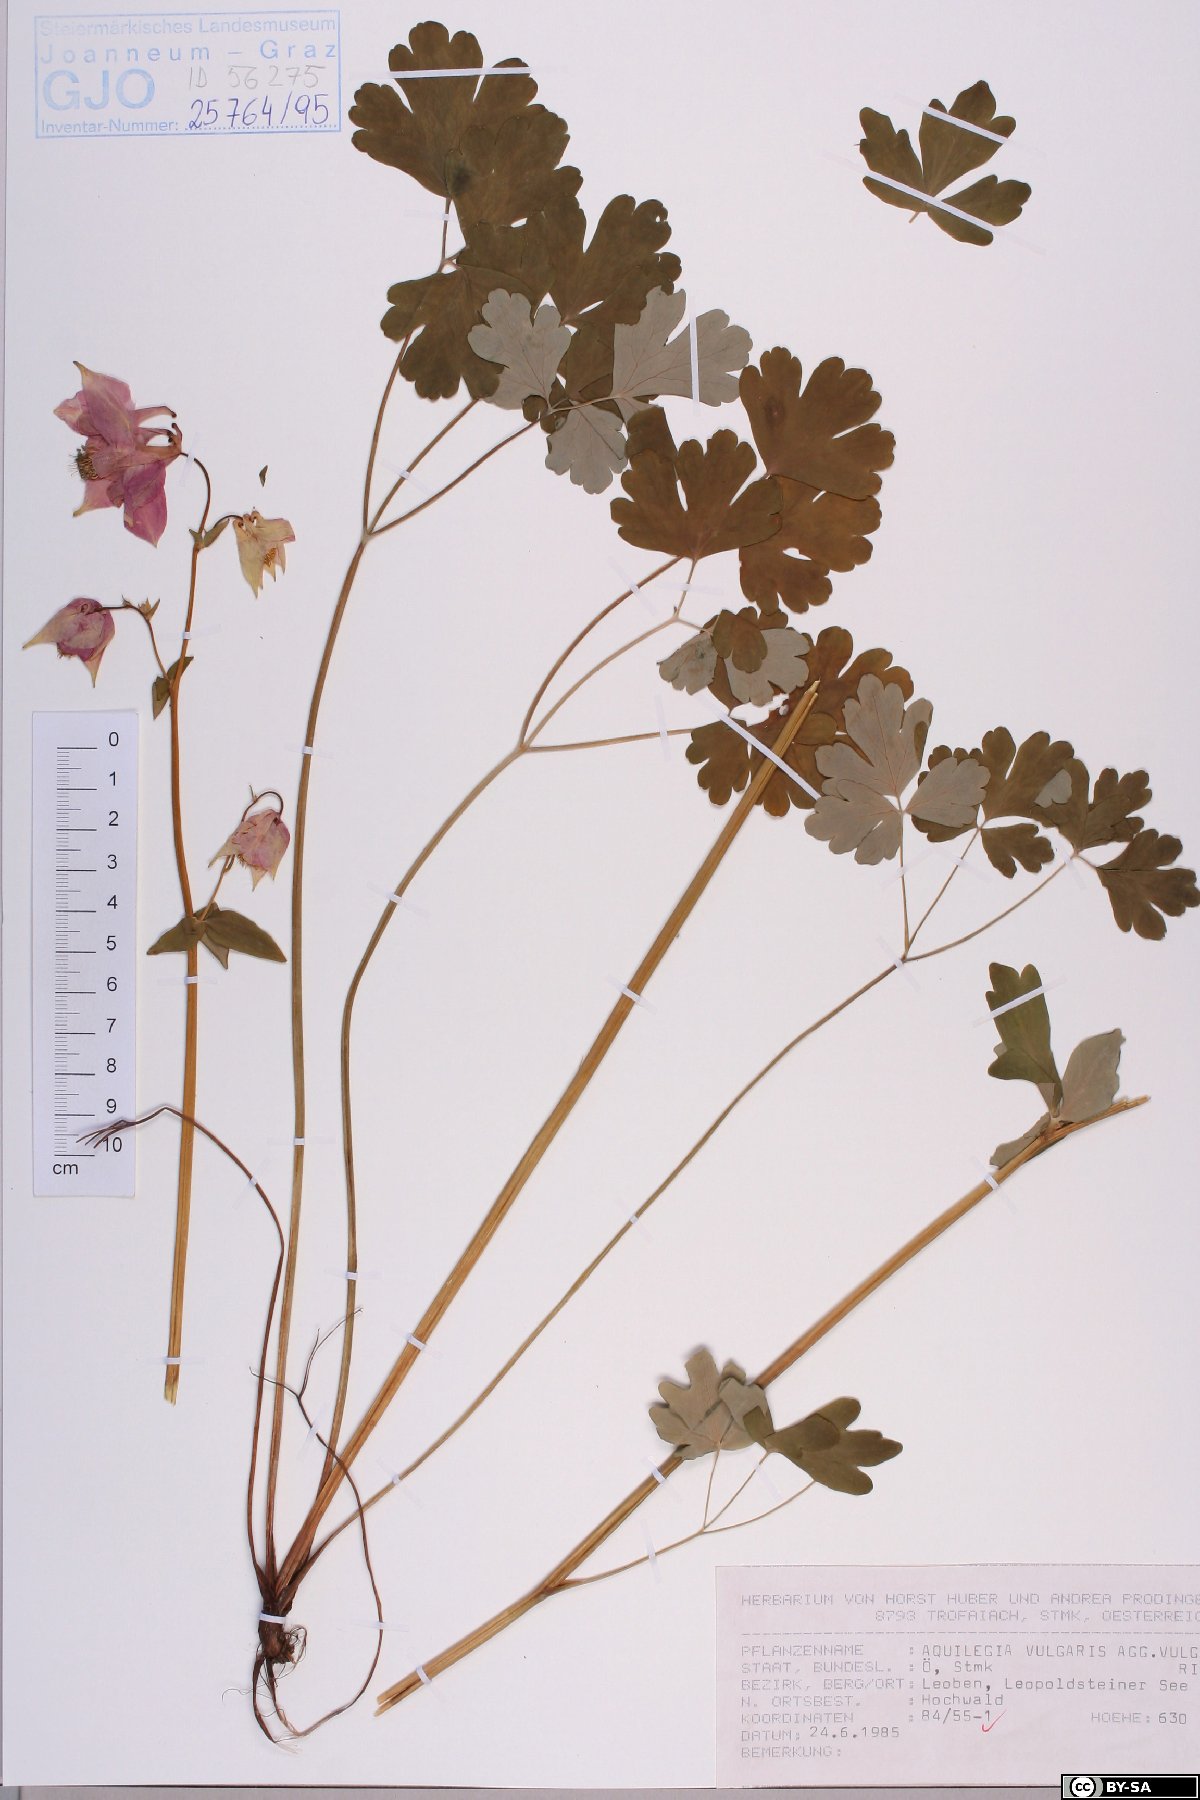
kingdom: Plantae
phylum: Tracheophyta
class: Magnoliopsida
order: Ranunculales
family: Ranunculaceae
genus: Aquilegia
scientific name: Aquilegia vulgaris
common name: Columbine
